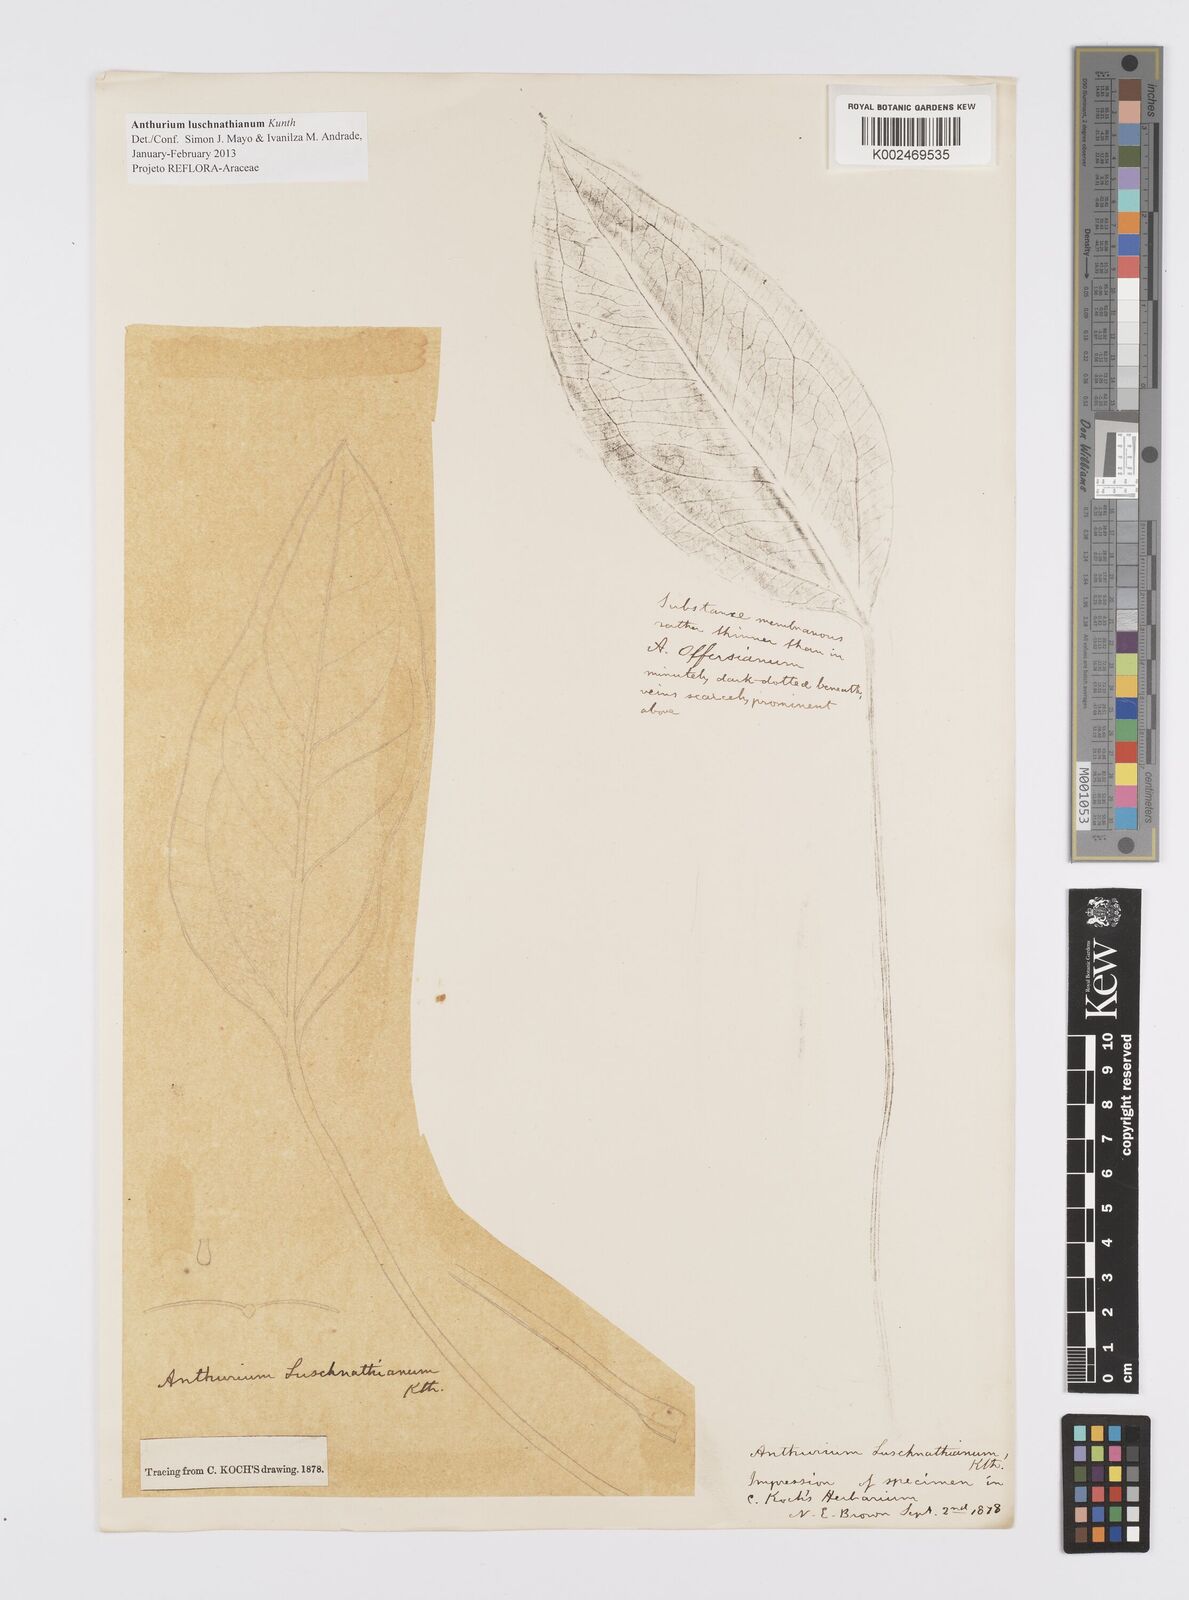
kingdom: Plantae
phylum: Tracheophyta
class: Liliopsida
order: Alismatales
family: Araceae
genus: Anthurium
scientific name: Anthurium luschnathianum
